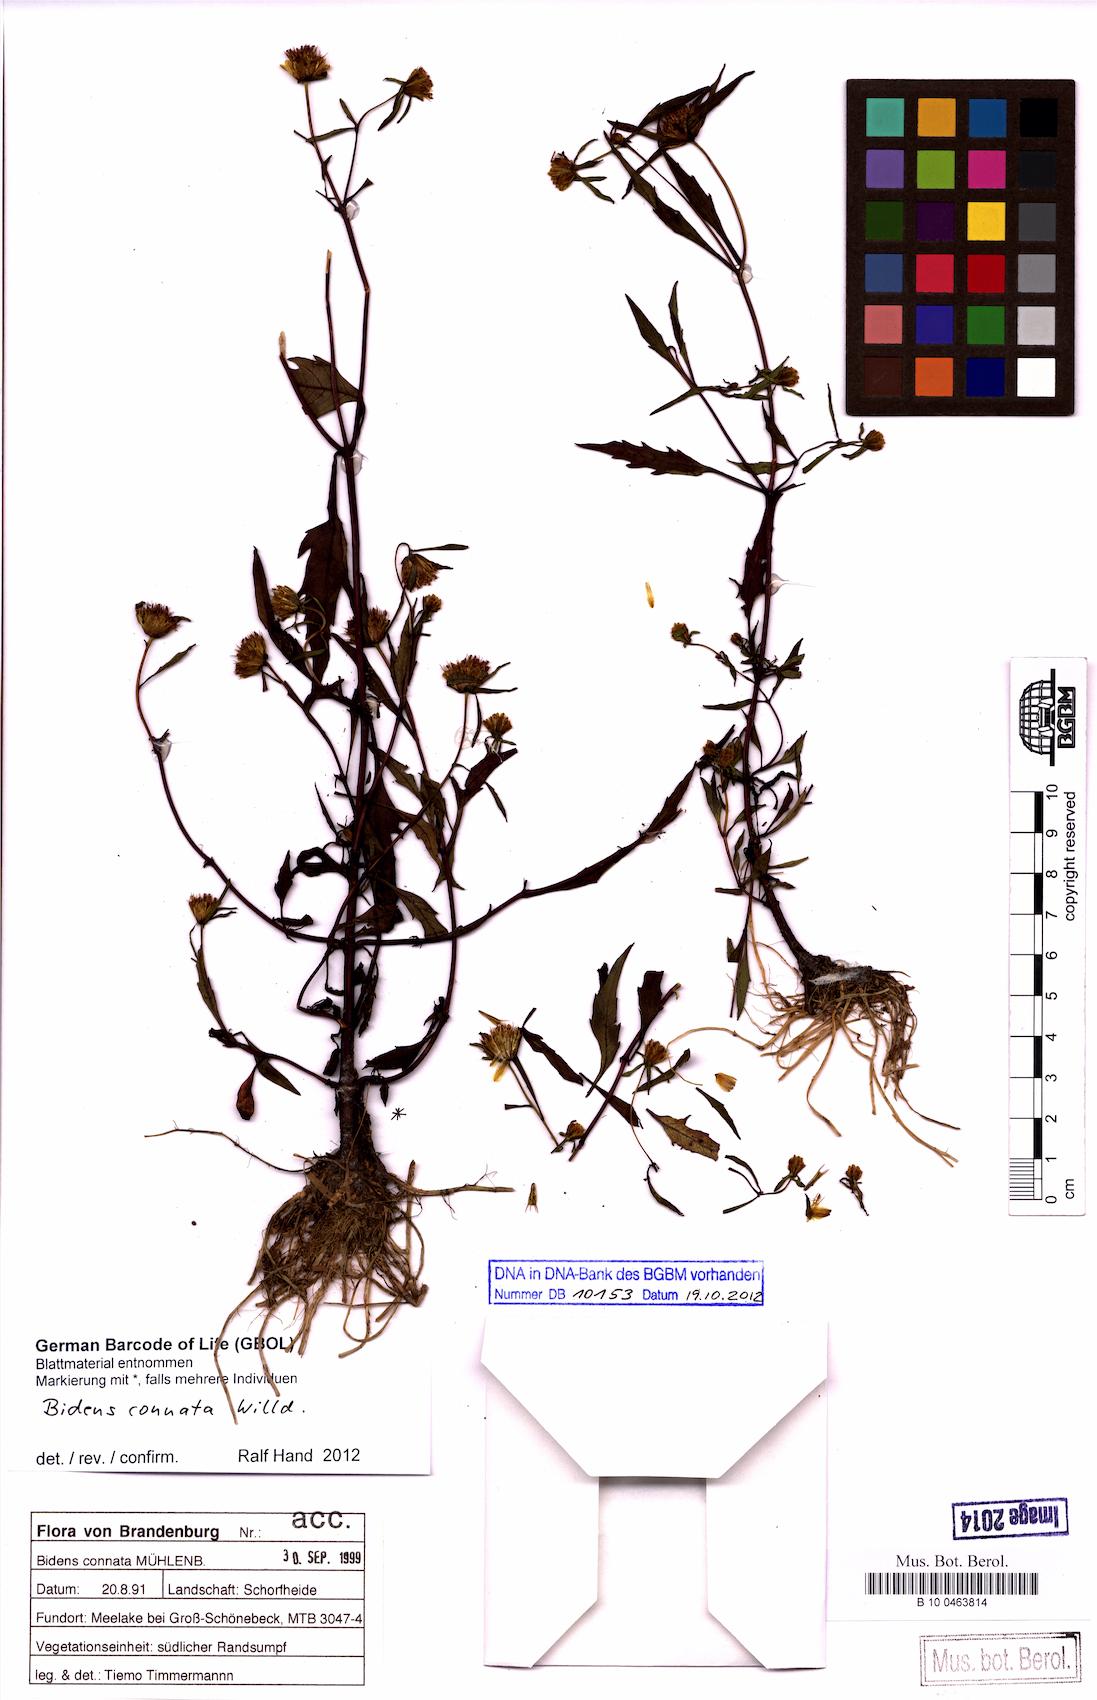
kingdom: Plantae
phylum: Tracheophyta
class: Magnoliopsida
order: Asterales
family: Asteraceae
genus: Bidens
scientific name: Bidens connata
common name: London bur-marigold
